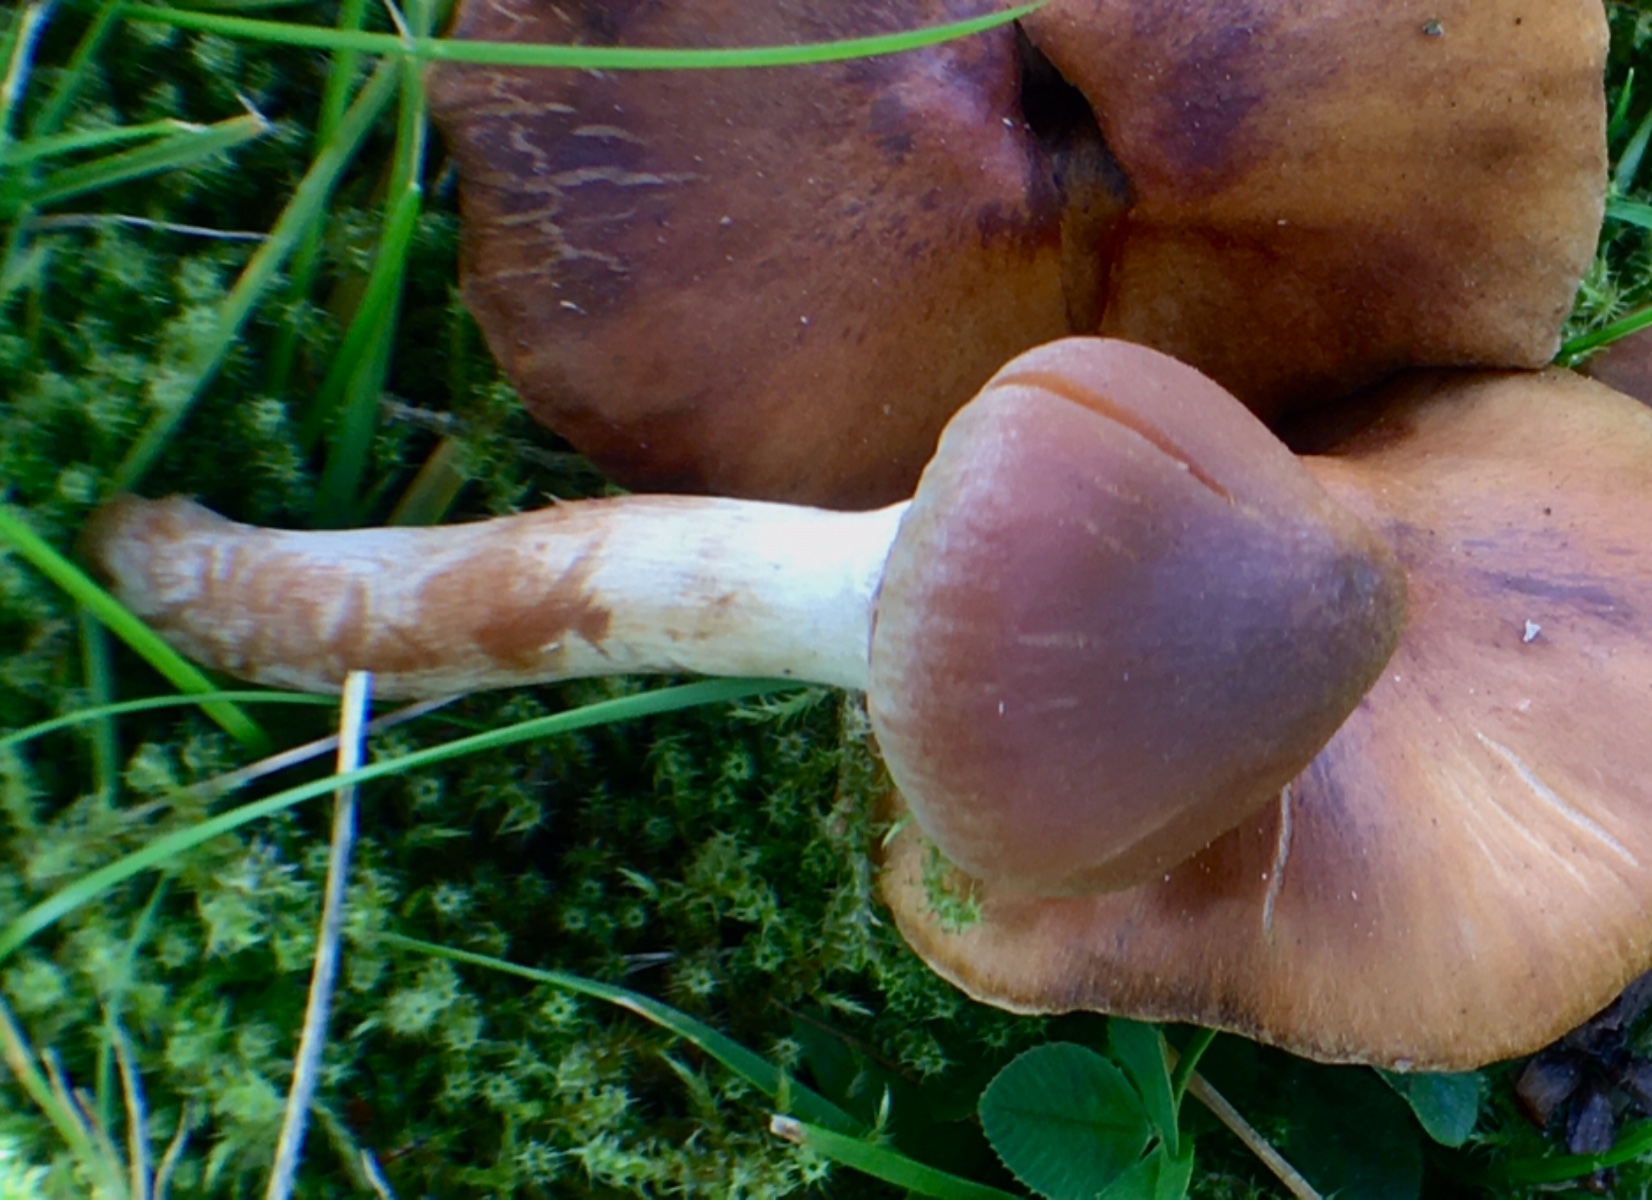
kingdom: Fungi
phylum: Basidiomycota
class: Agaricomycetes
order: Agaricales
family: Cortinariaceae
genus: Cortinarius
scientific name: Cortinarius hinnuleus
